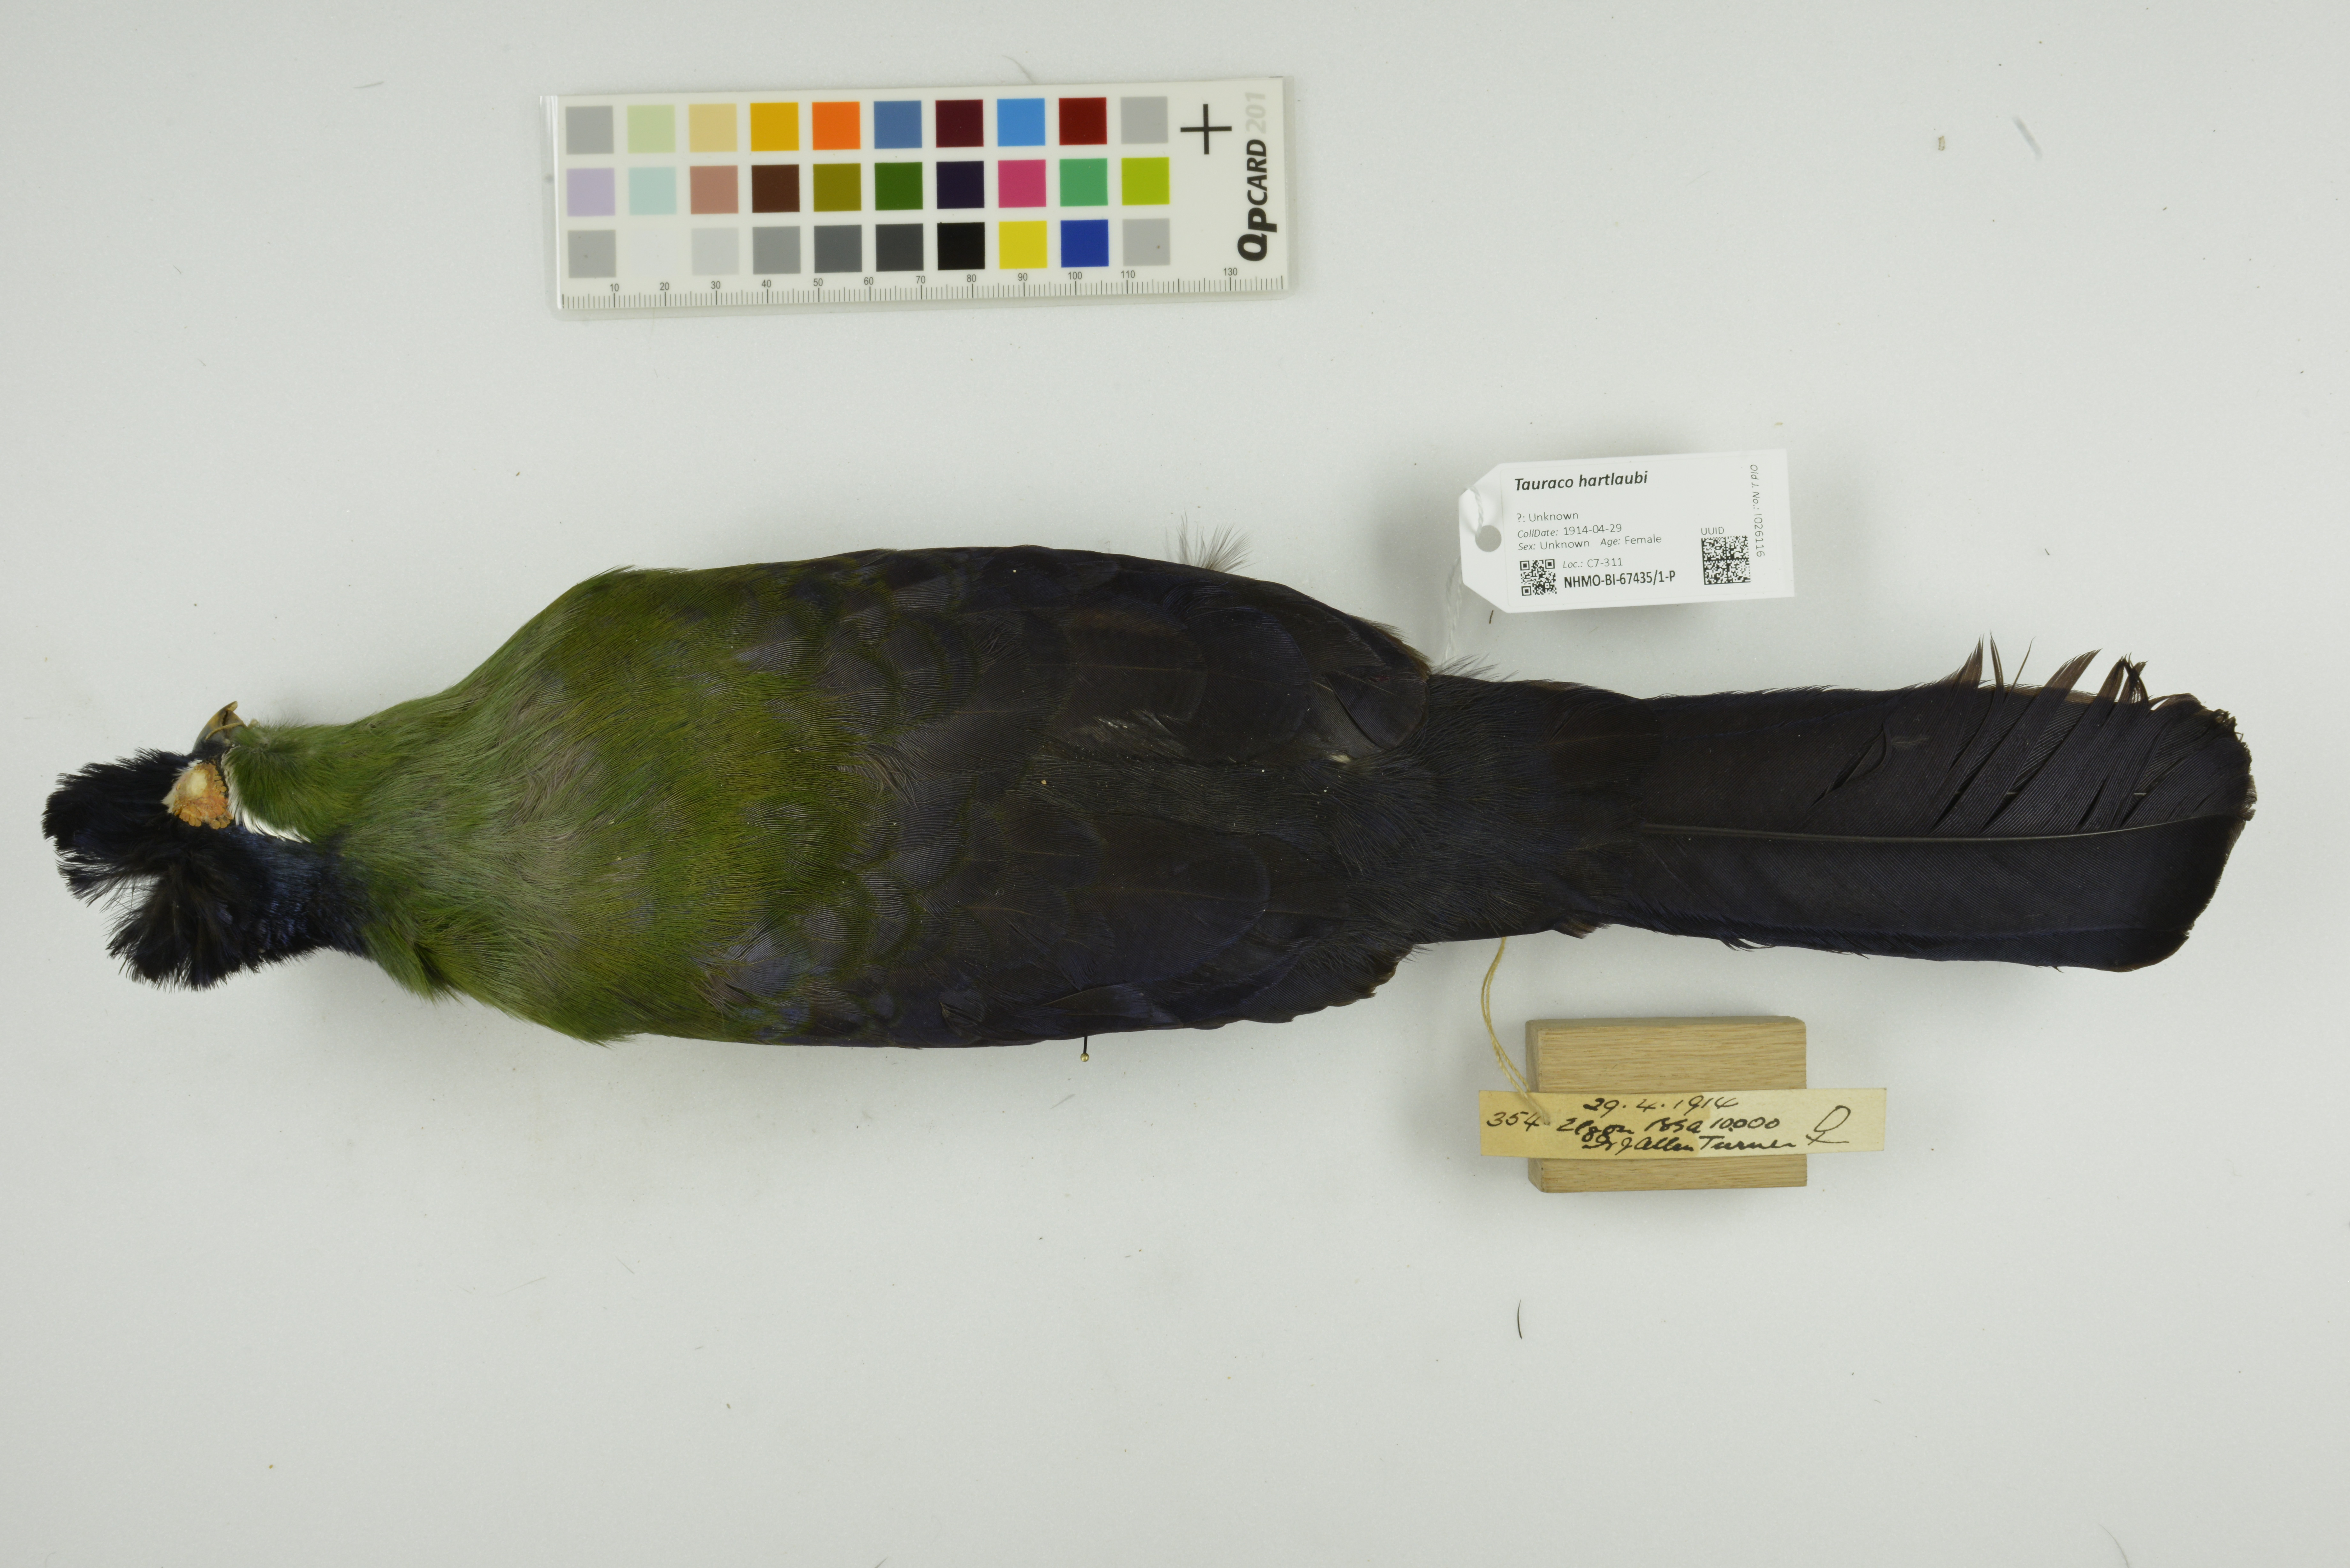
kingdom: Animalia
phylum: Chordata
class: Aves
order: Musophagiformes
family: Musophagidae
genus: Tauraco
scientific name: Tauraco hartlaubi
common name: Hartlaub's turaco
